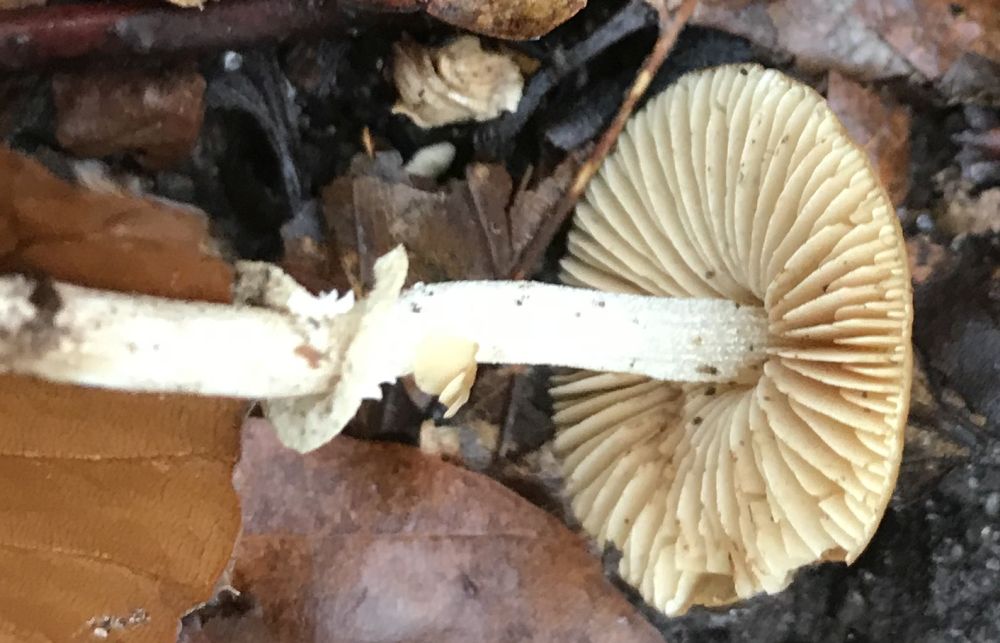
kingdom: Fungi
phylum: Basidiomycota
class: Agaricomycetes
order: Agaricales
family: Bolbitiaceae
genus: Pholiotina
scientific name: Pholiotina
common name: dansehat
